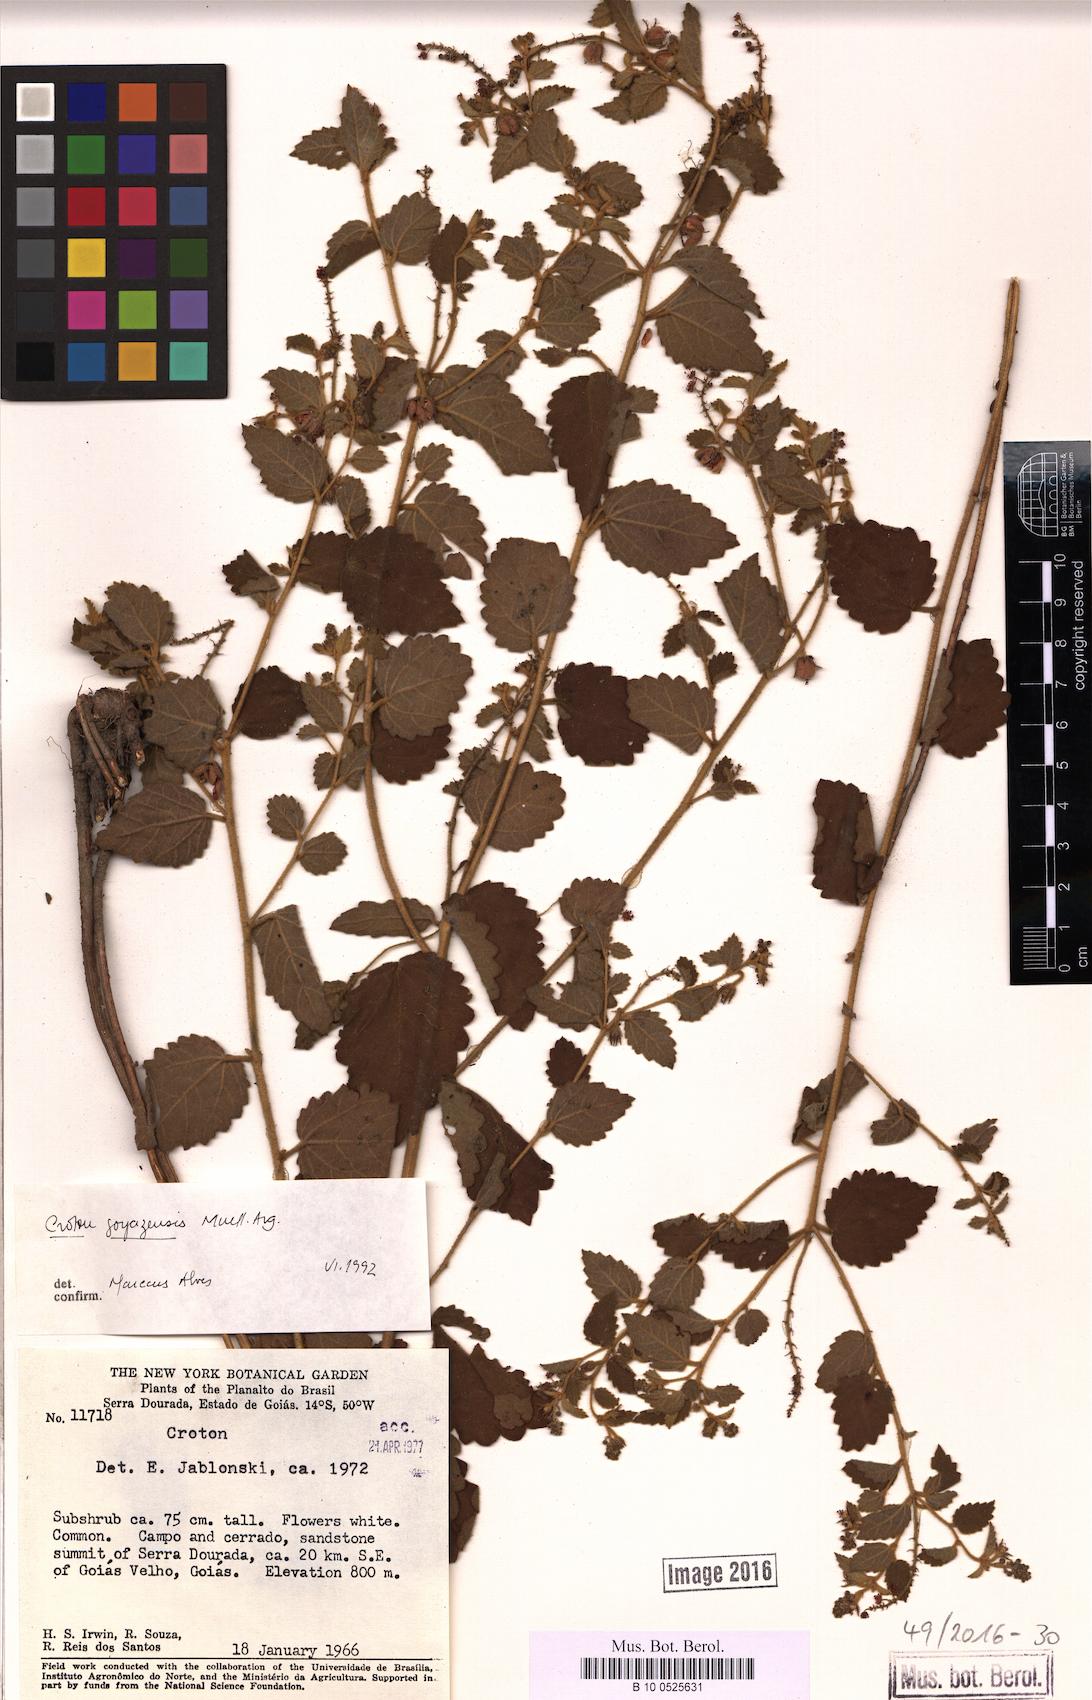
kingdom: Plantae
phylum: Tracheophyta
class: Magnoliopsida
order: Malpighiales
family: Euphorbiaceae
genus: Croton
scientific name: Croton goyazensis
